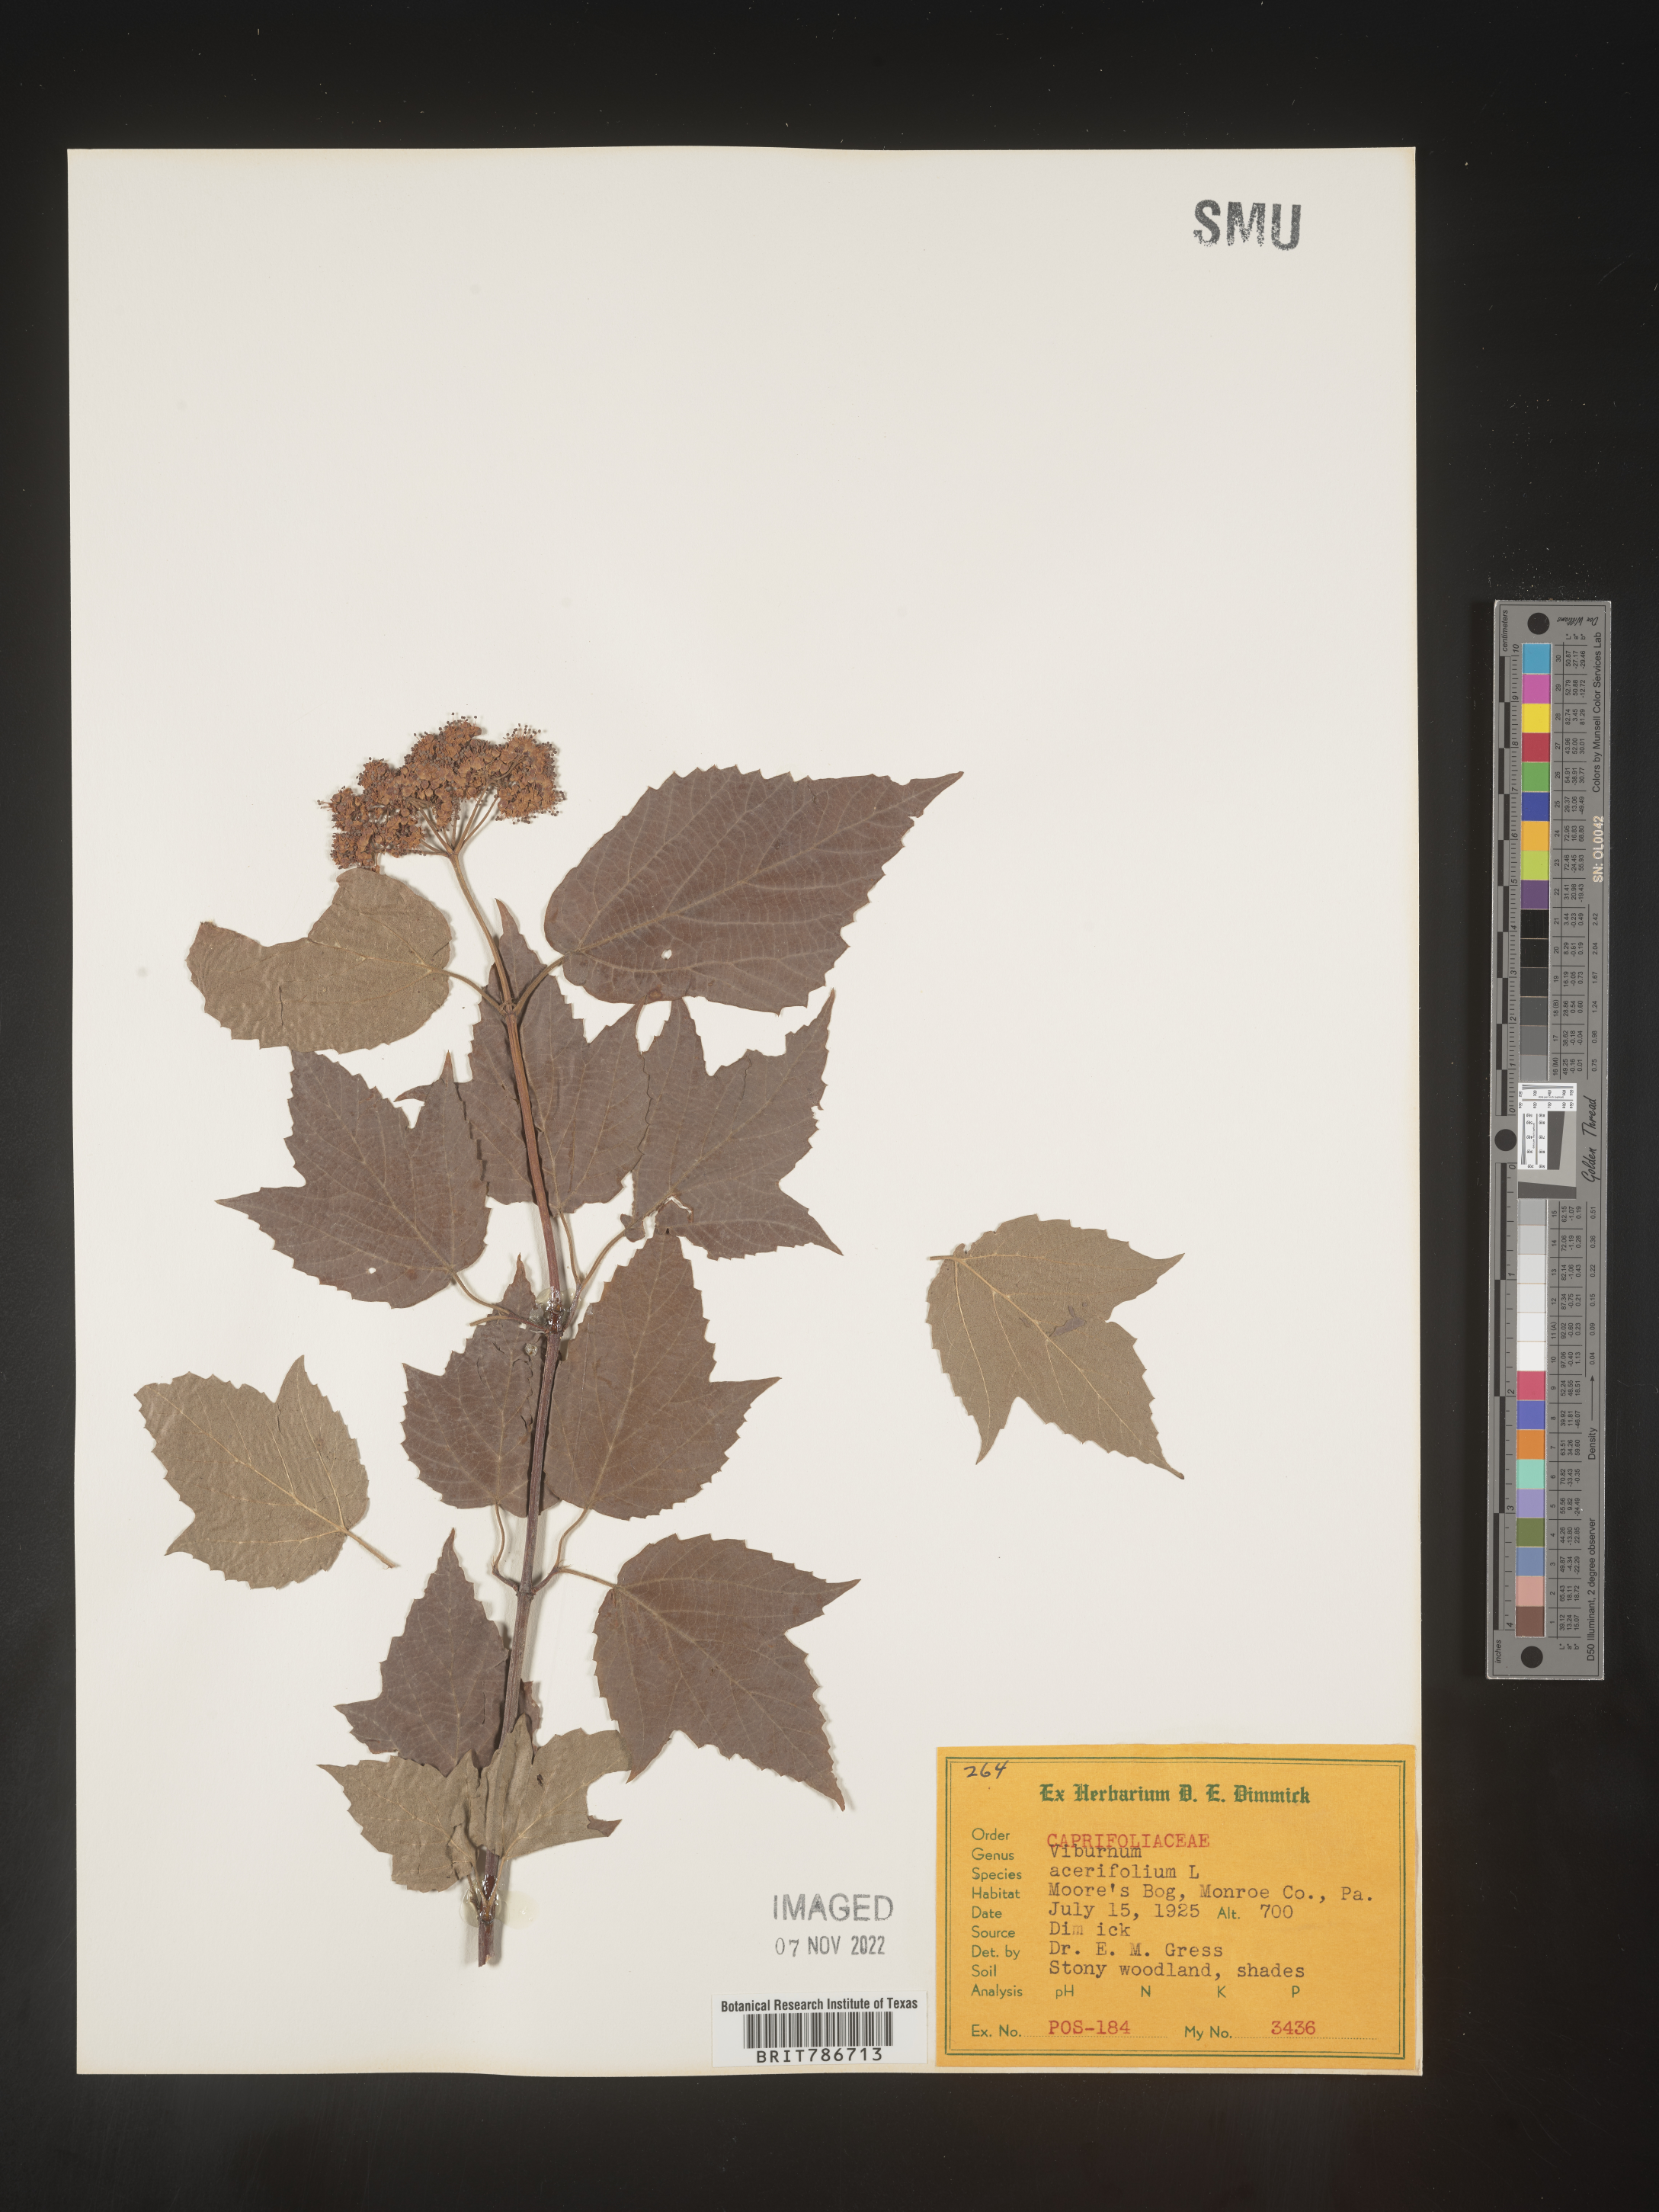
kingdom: Plantae
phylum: Tracheophyta
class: Magnoliopsida
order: Dipsacales
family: Viburnaceae
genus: Viburnum
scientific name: Viburnum acerifolium
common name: Dockmackie
